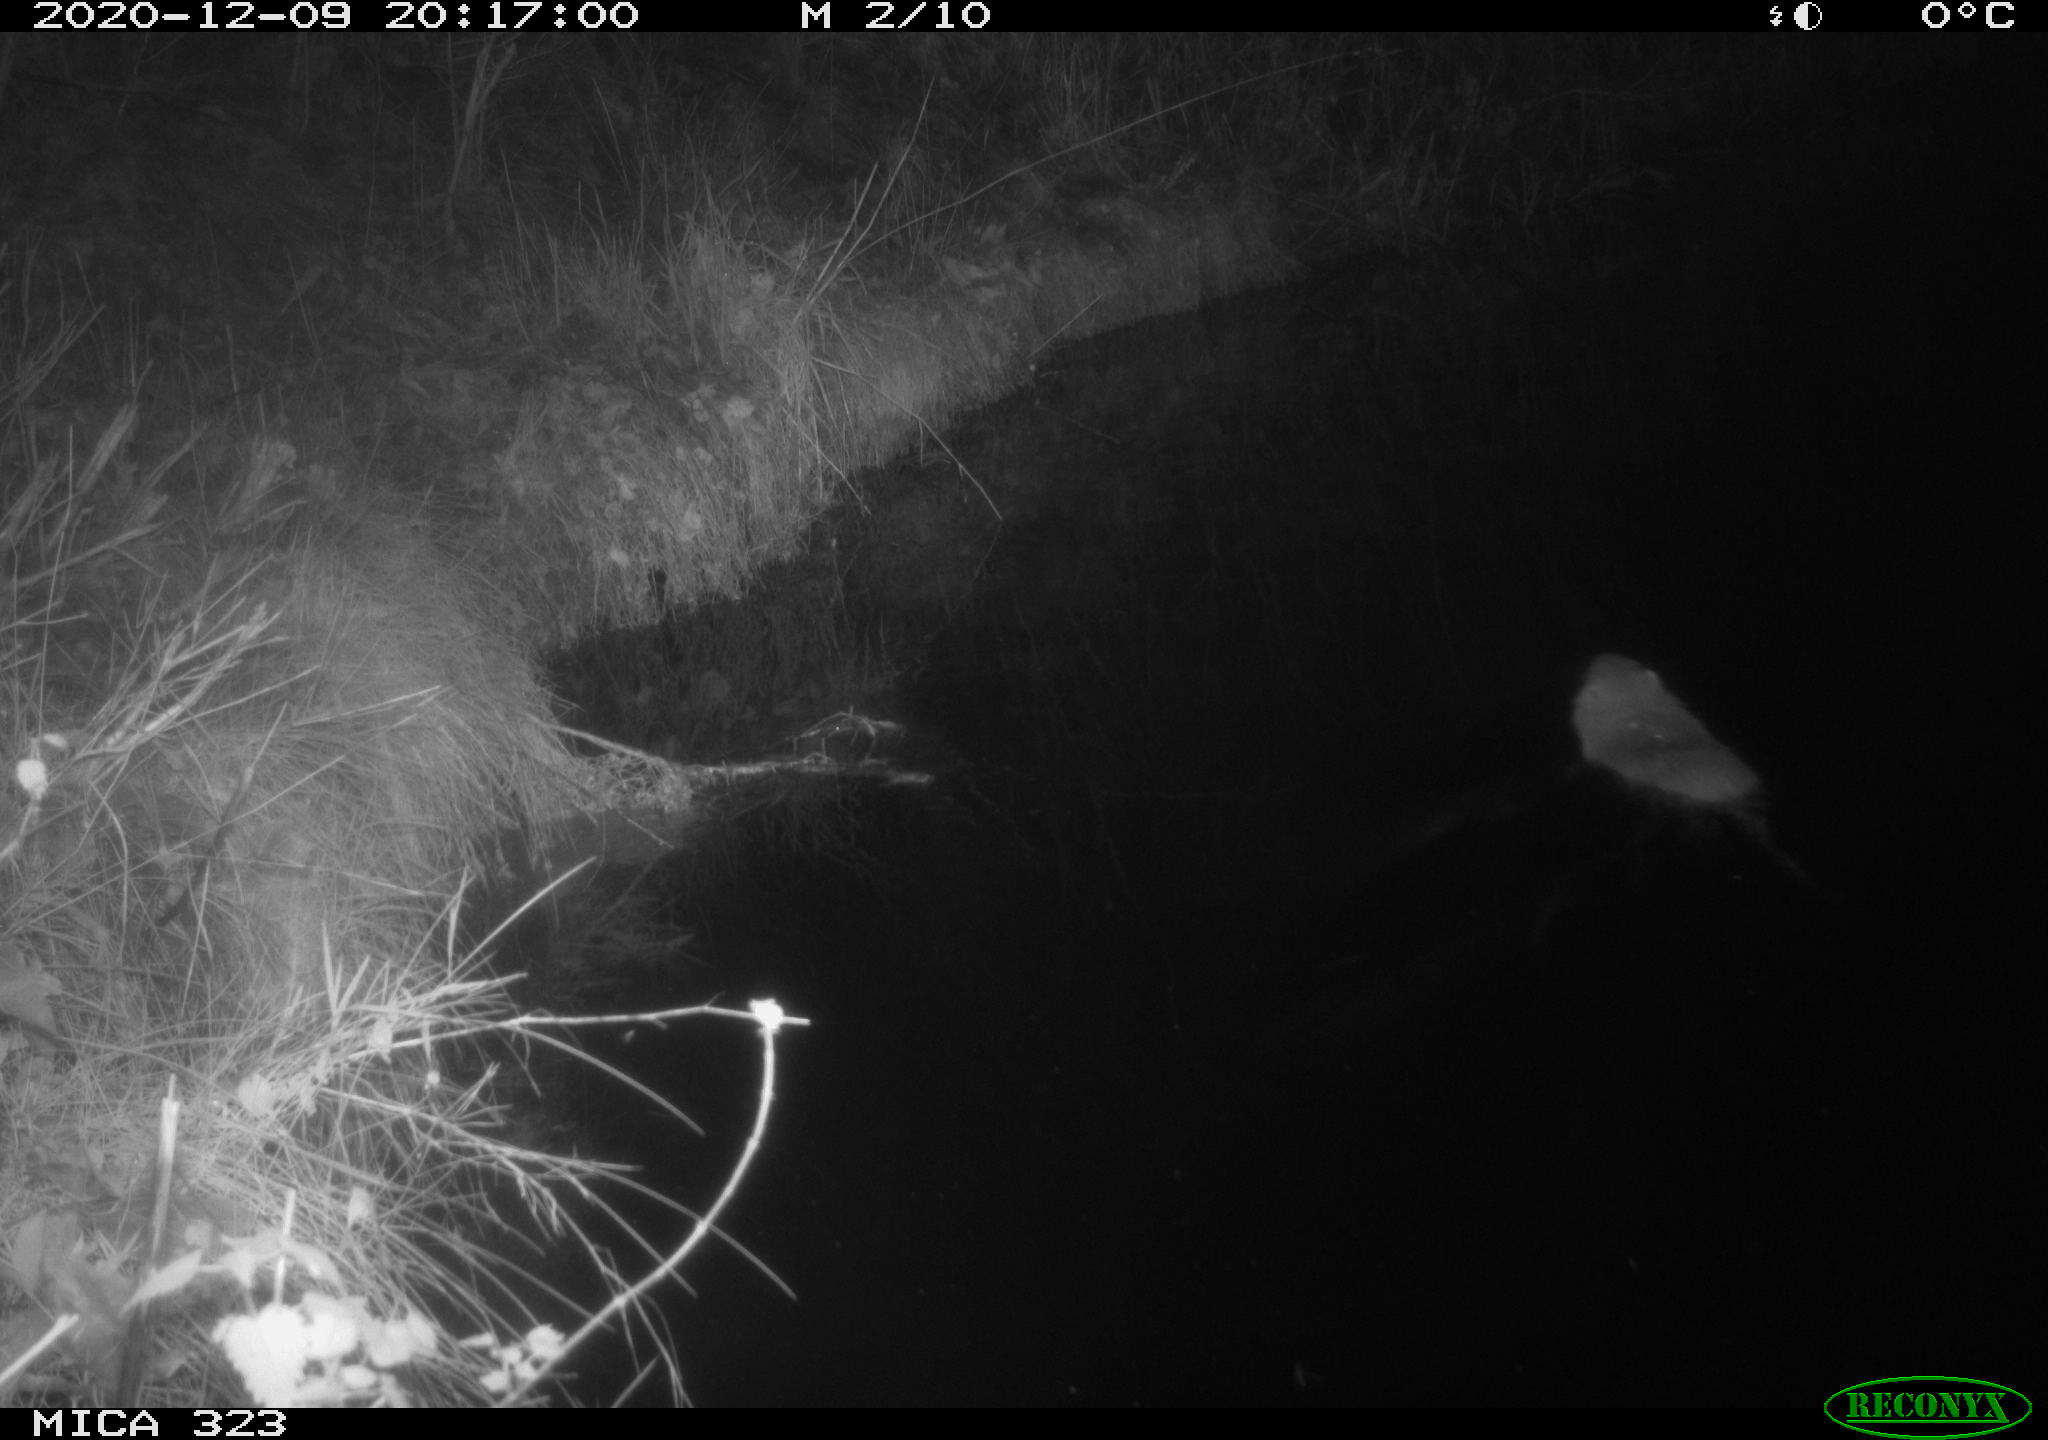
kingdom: Animalia
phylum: Chordata
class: Mammalia
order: Rodentia
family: Myocastoridae
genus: Myocastor
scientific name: Myocastor coypus
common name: Coypu
